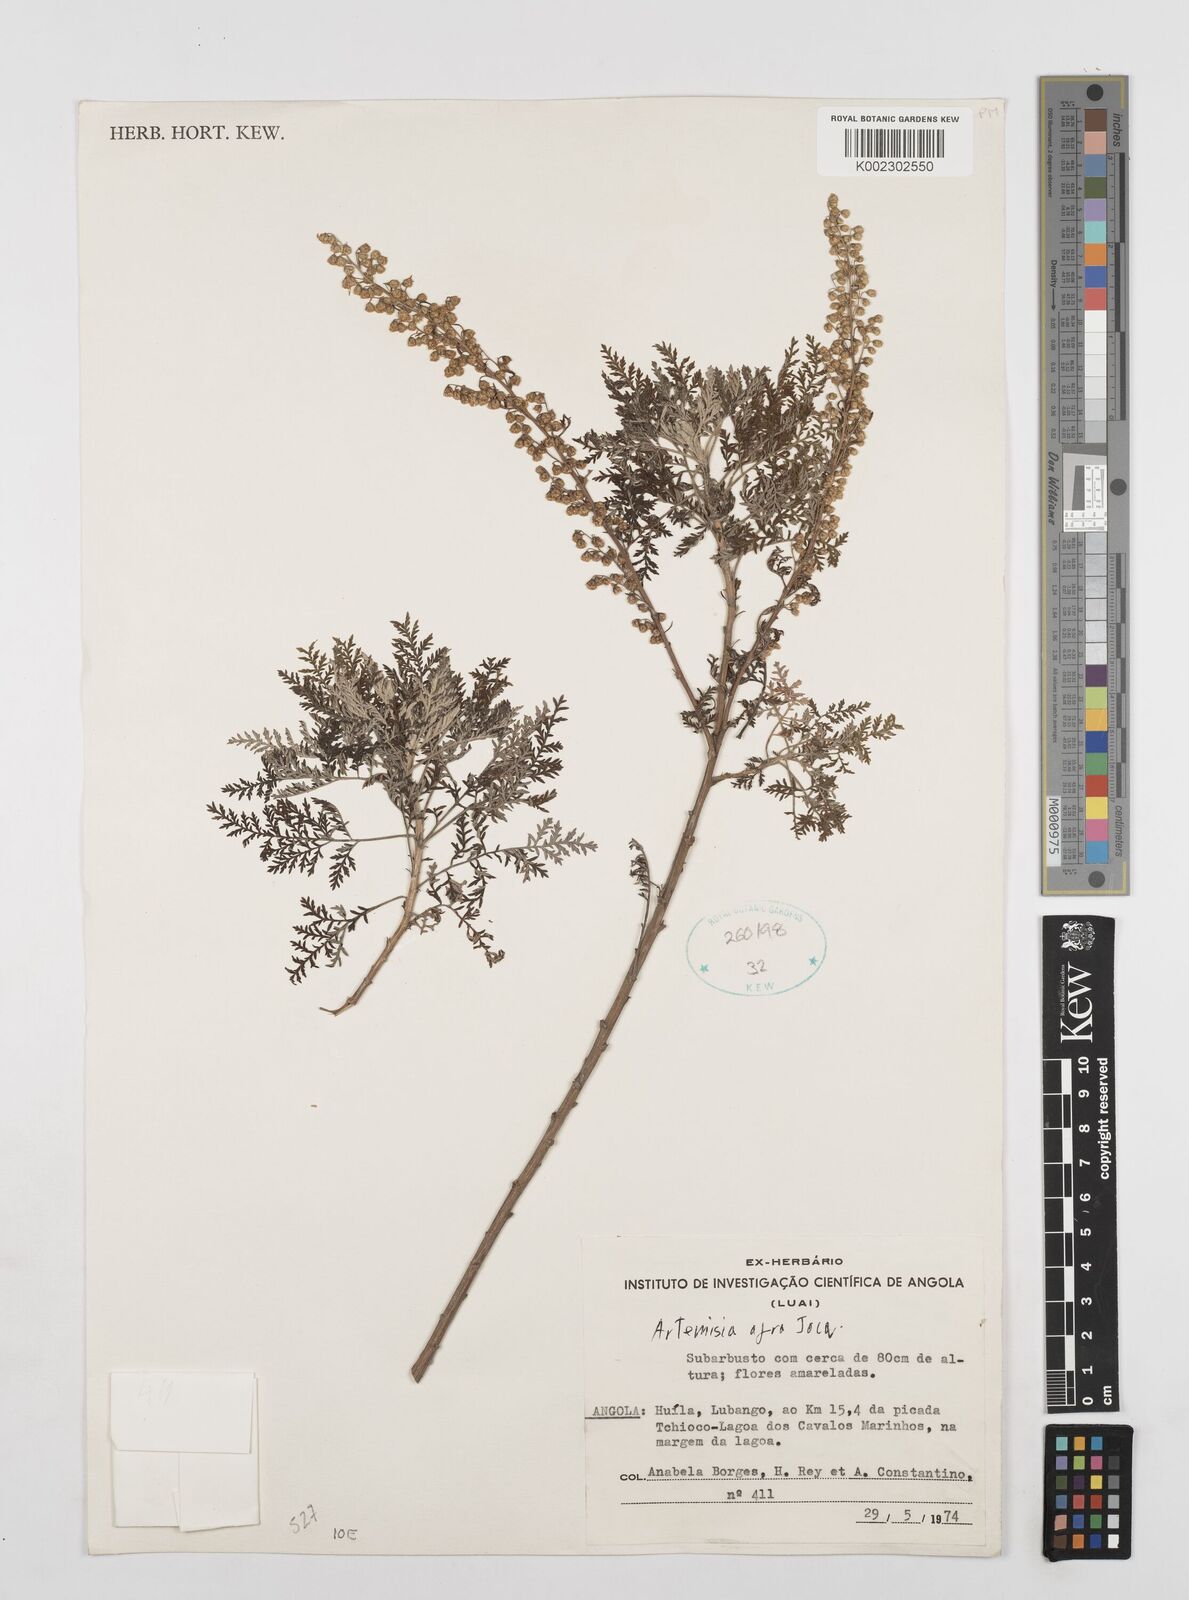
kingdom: Plantae
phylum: Tracheophyta
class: Magnoliopsida
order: Asterales
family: Asteraceae
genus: Artemisia
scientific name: Artemisia afra
